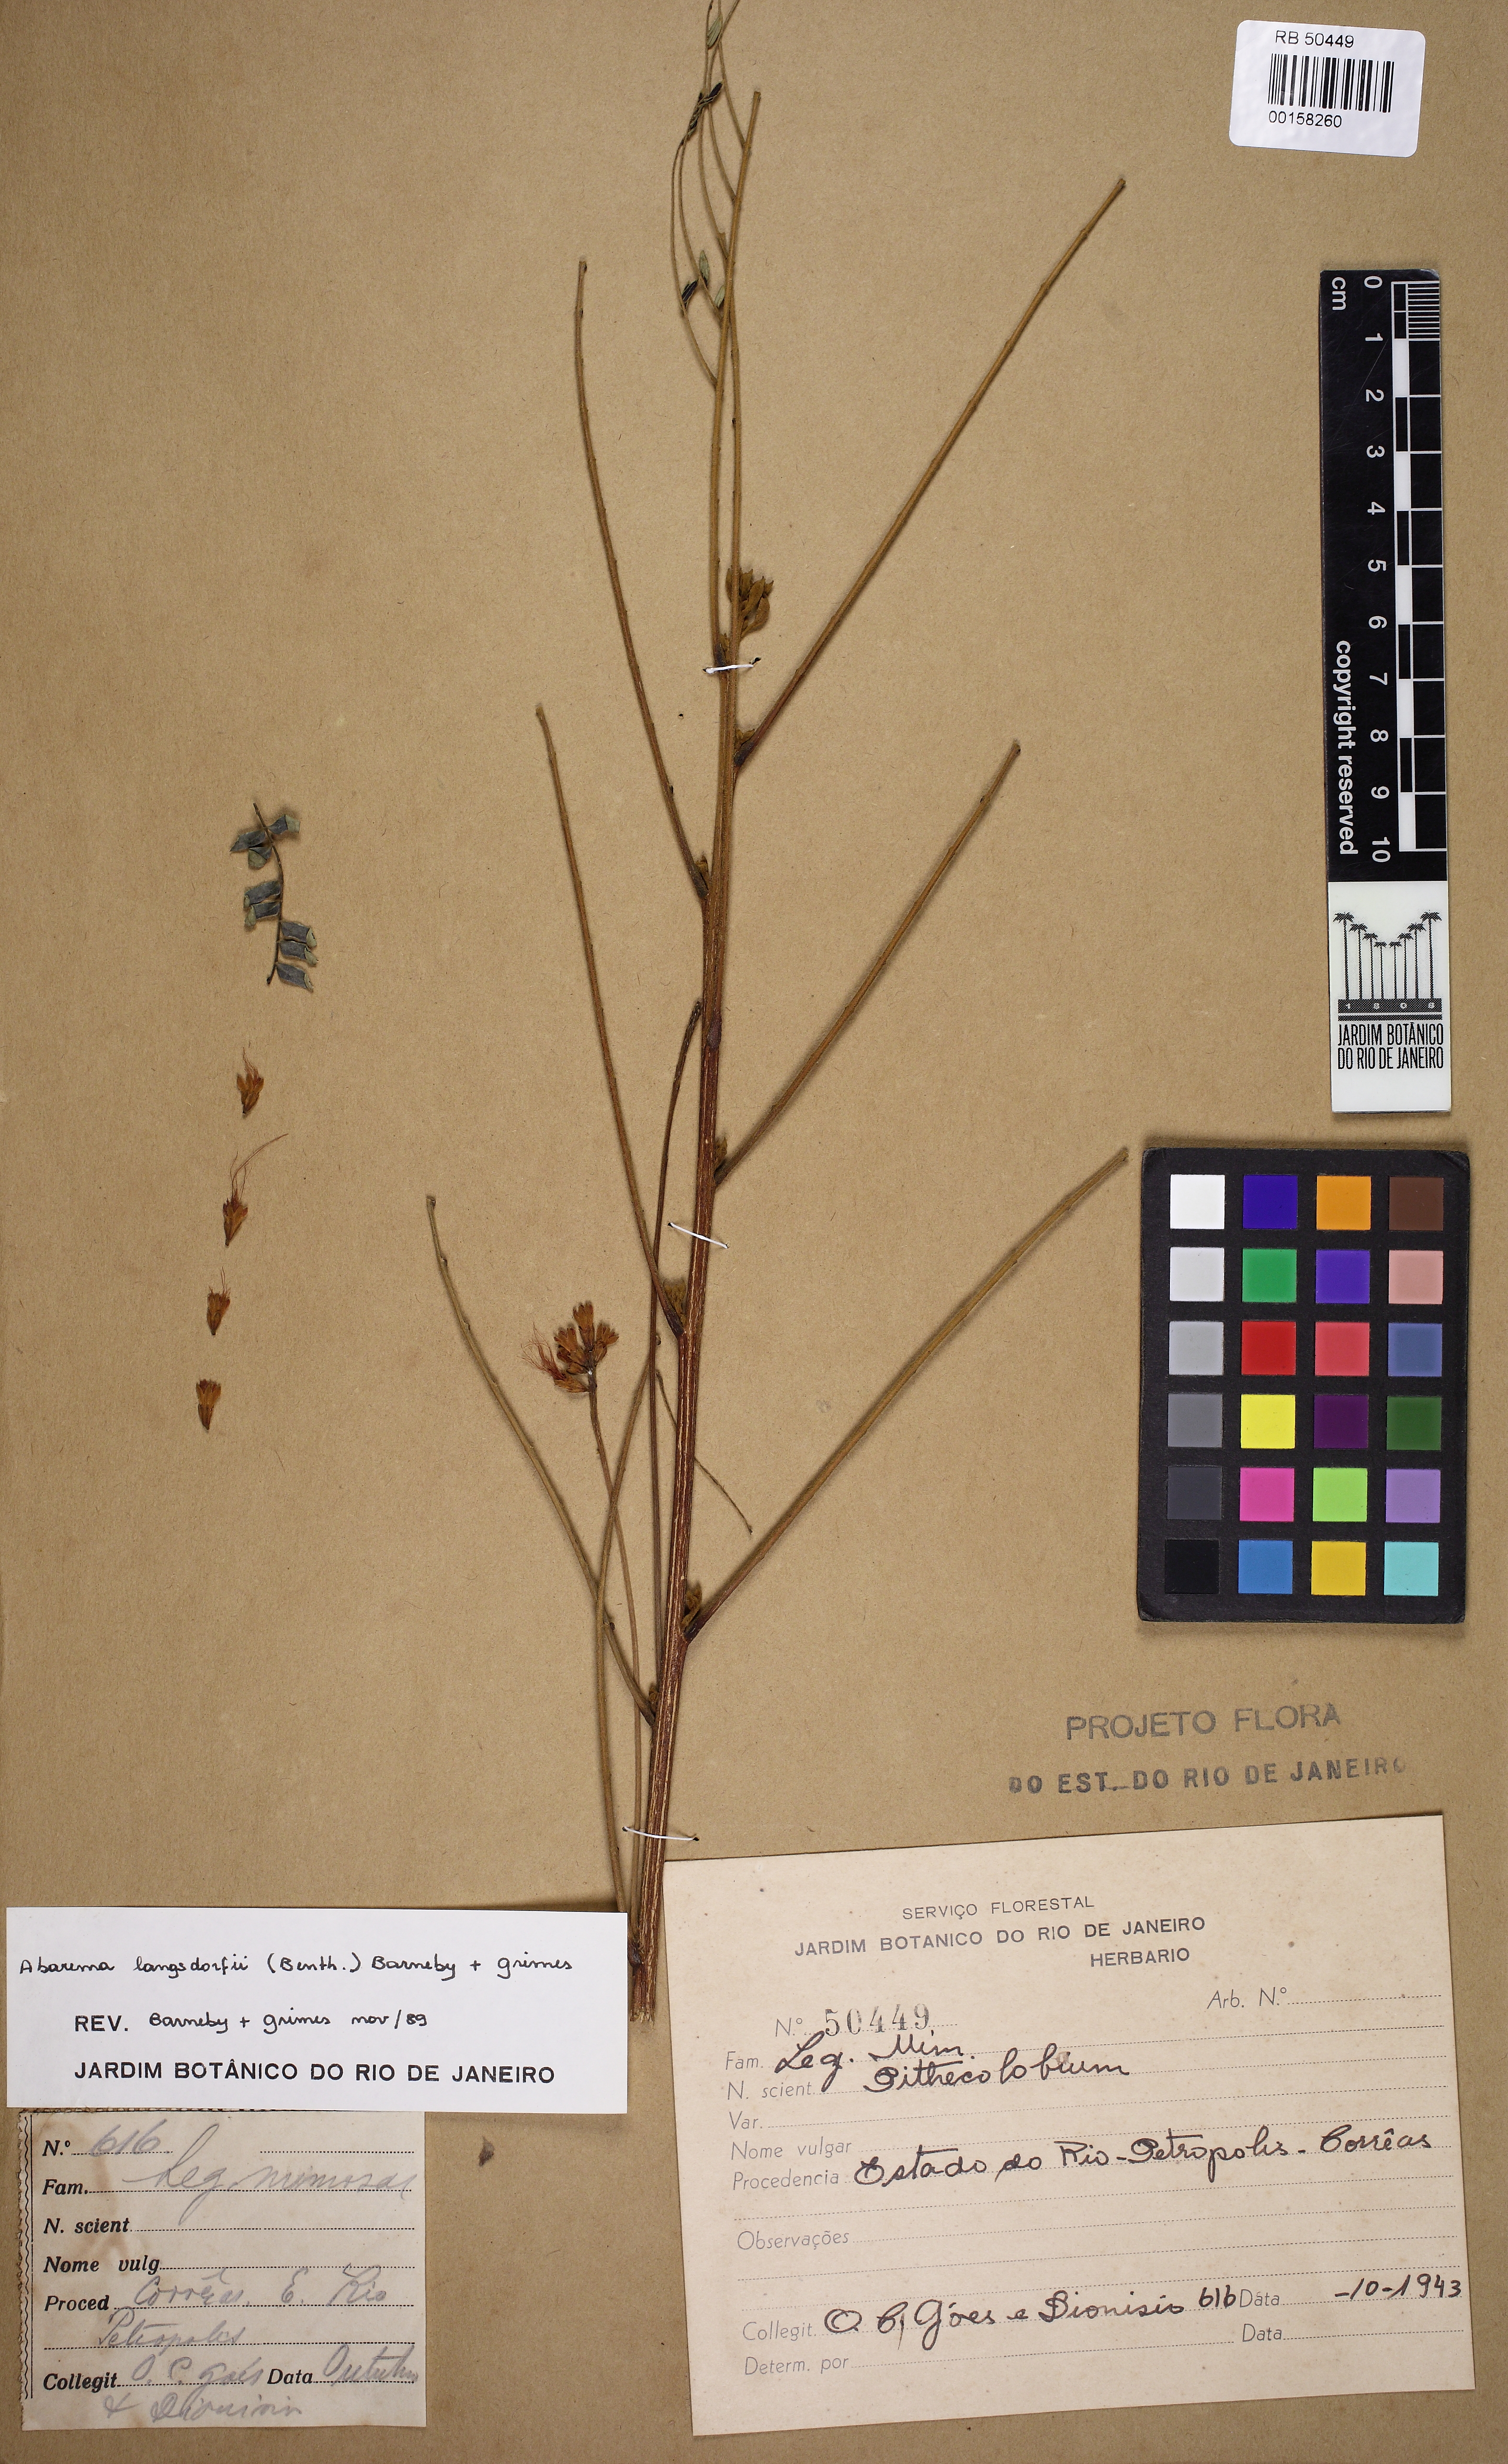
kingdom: Plantae
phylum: Tracheophyta
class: Magnoliopsida
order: Fabales
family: Fabaceae
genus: Jupunba
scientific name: Jupunba langsdorffii
